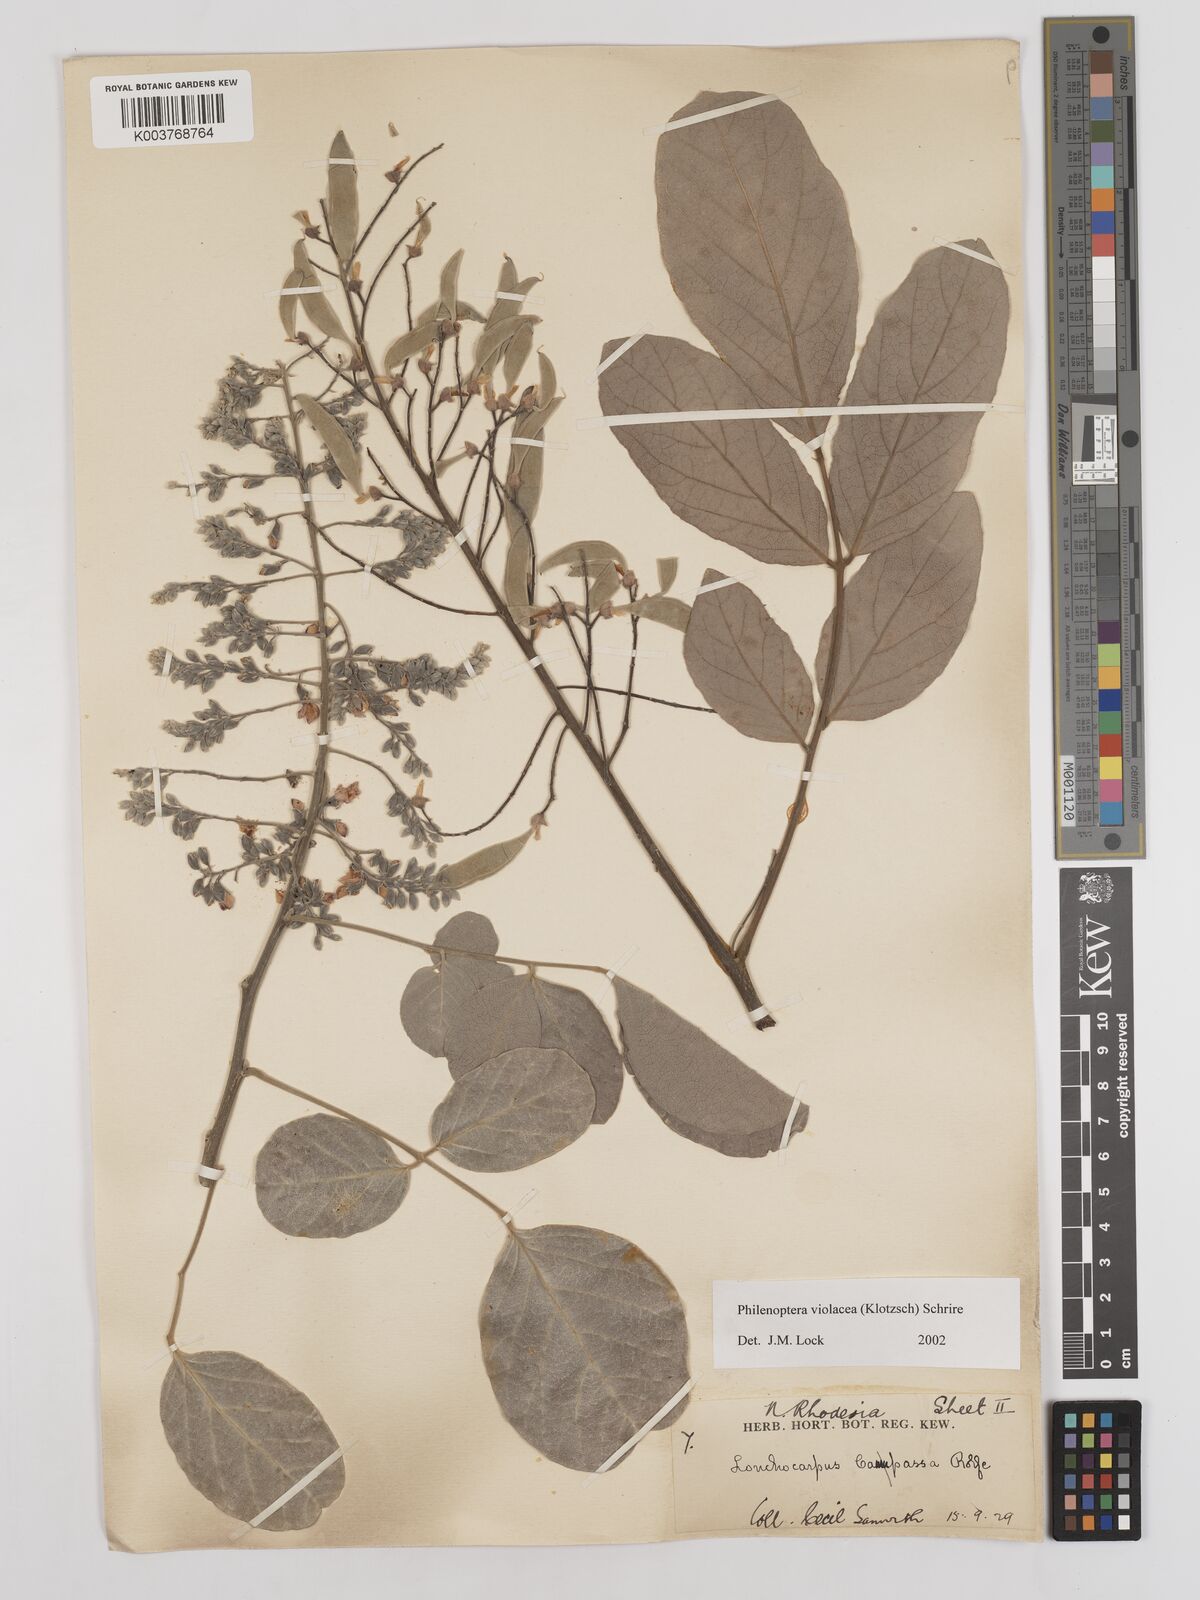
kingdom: Plantae
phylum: Tracheophyta
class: Magnoliopsida
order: Fabales
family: Fabaceae
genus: Philenoptera
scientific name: Philenoptera violacea
